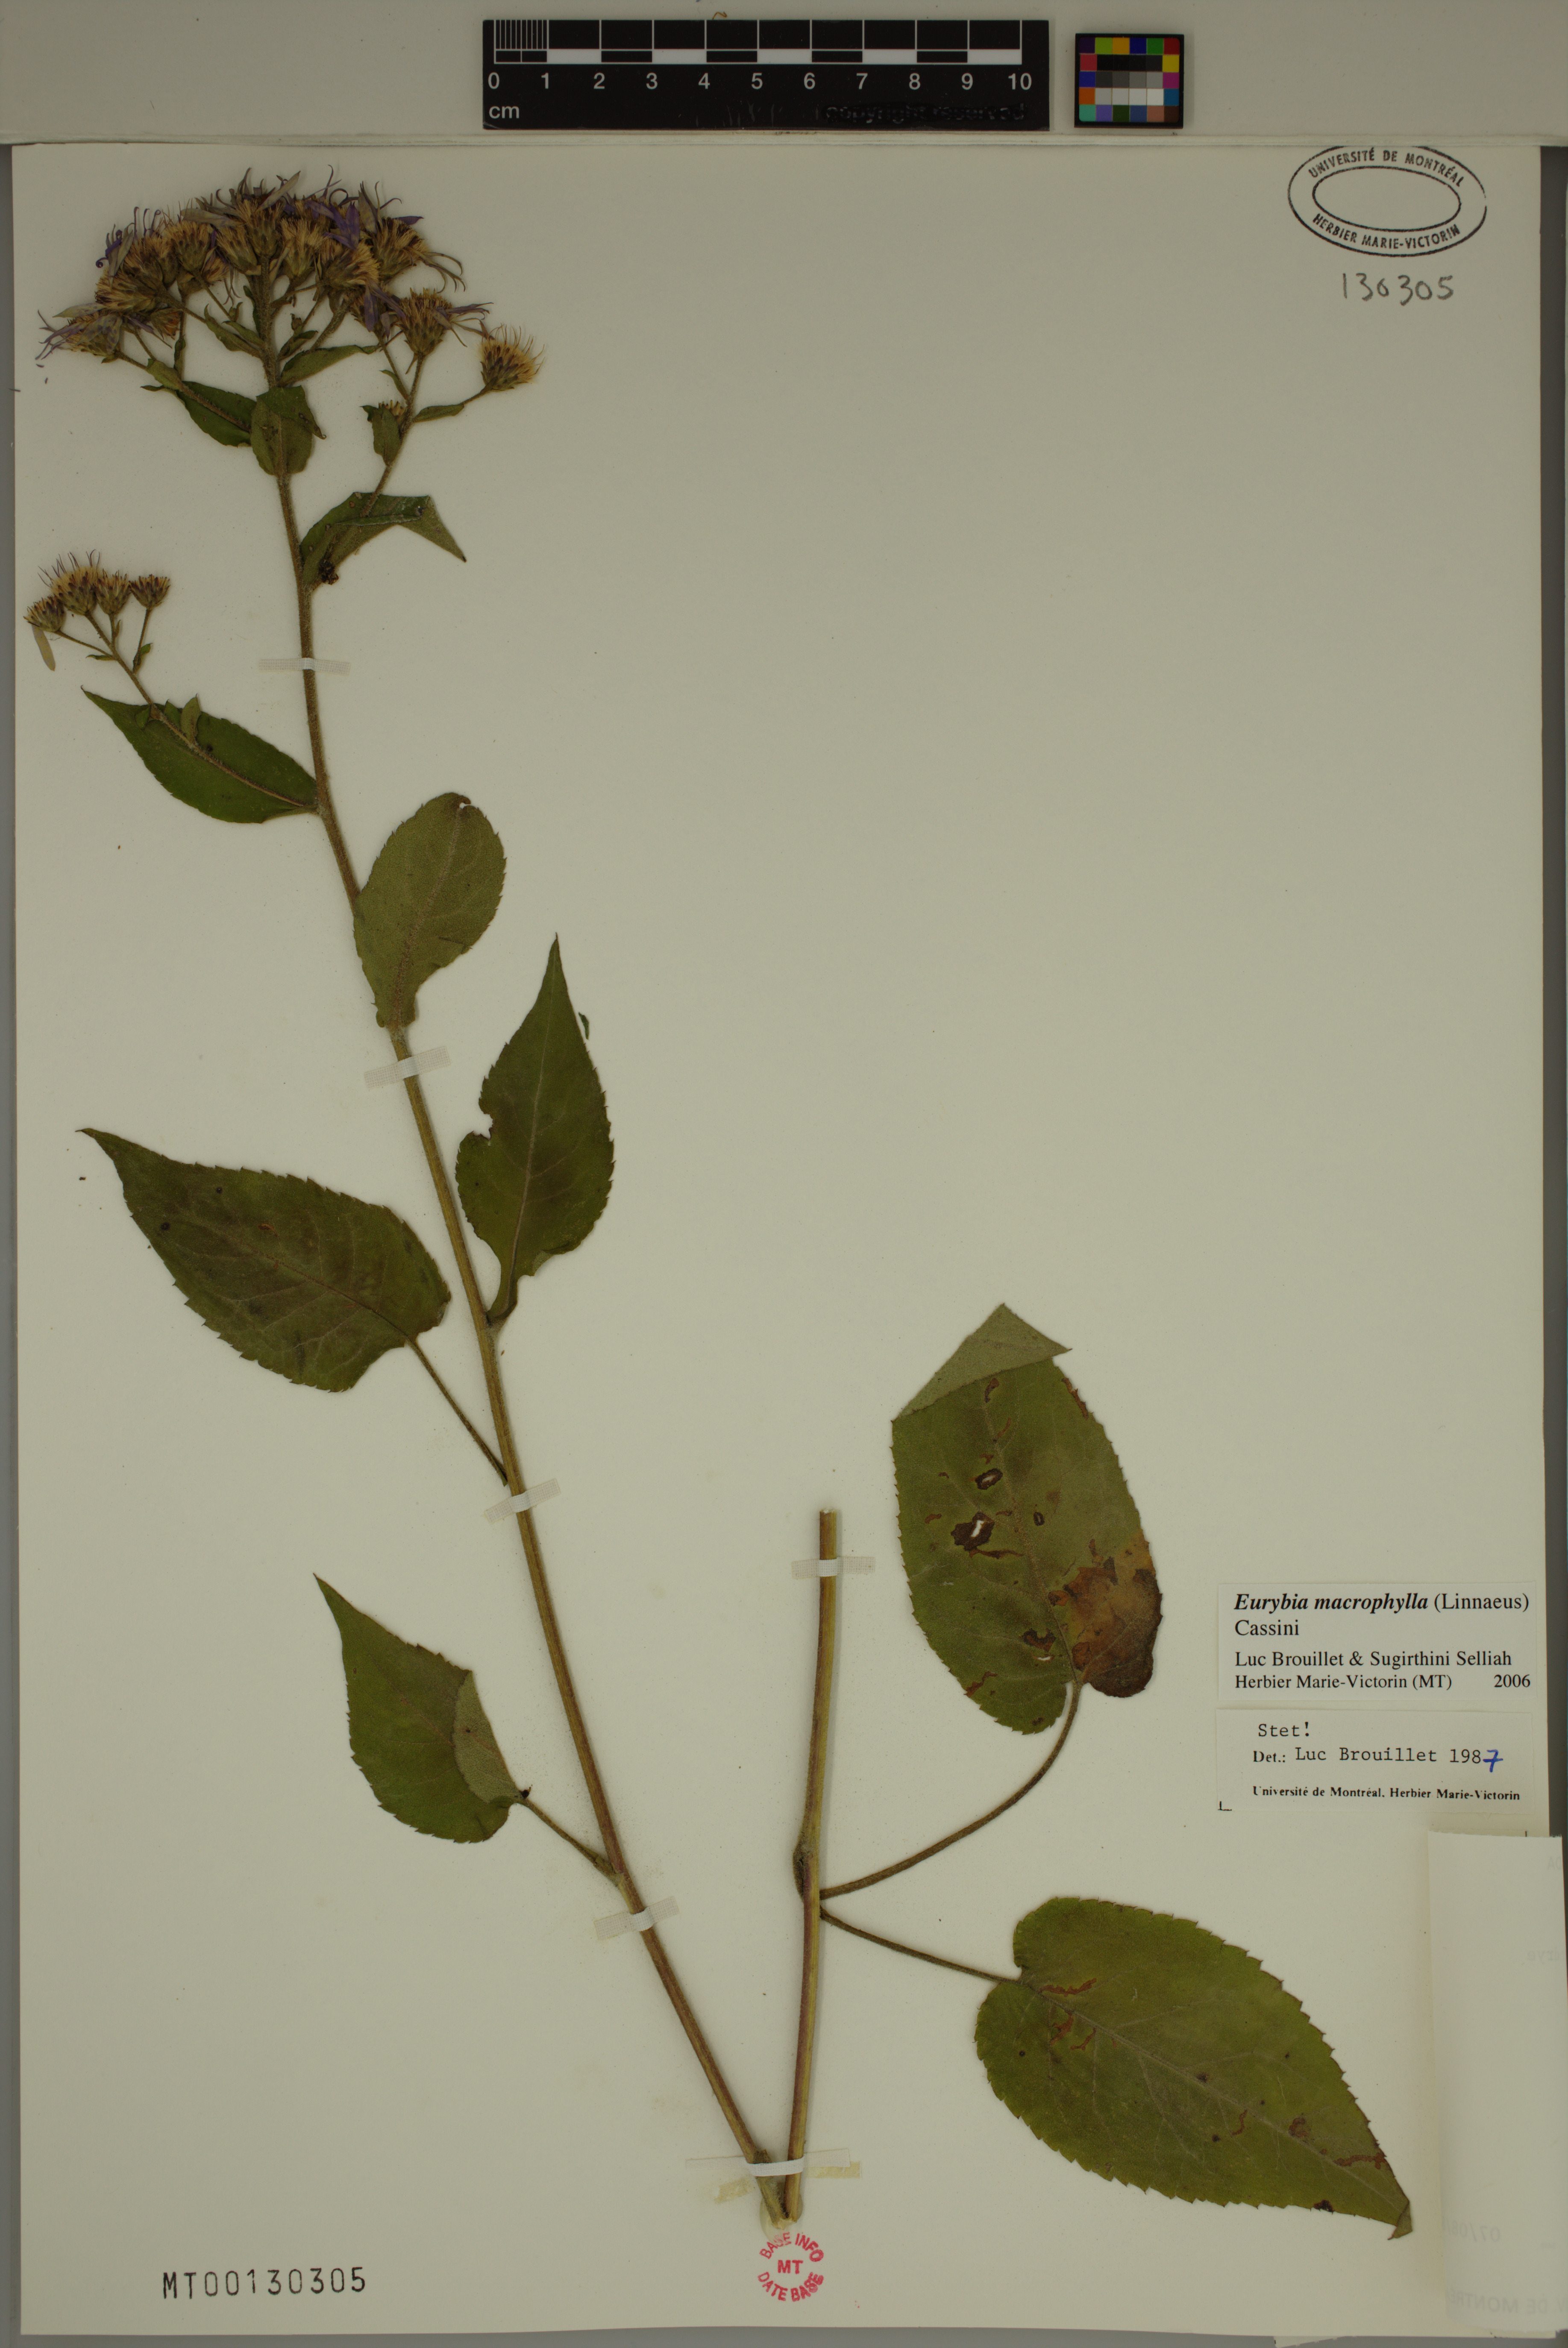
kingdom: Plantae
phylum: Tracheophyta
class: Magnoliopsida
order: Asterales
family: Asteraceae
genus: Eurybia
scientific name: Eurybia macrophylla
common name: Big-leaved aster
